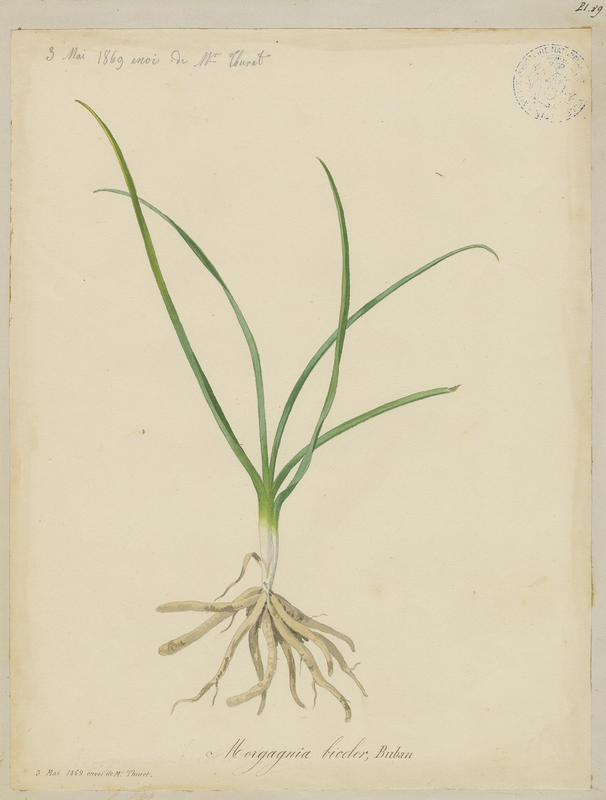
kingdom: Plantae
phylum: Tracheophyta
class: Liliopsida
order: Asparagales
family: Asphodelaceae
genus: Simethis
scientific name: Simethis mattiazzii
